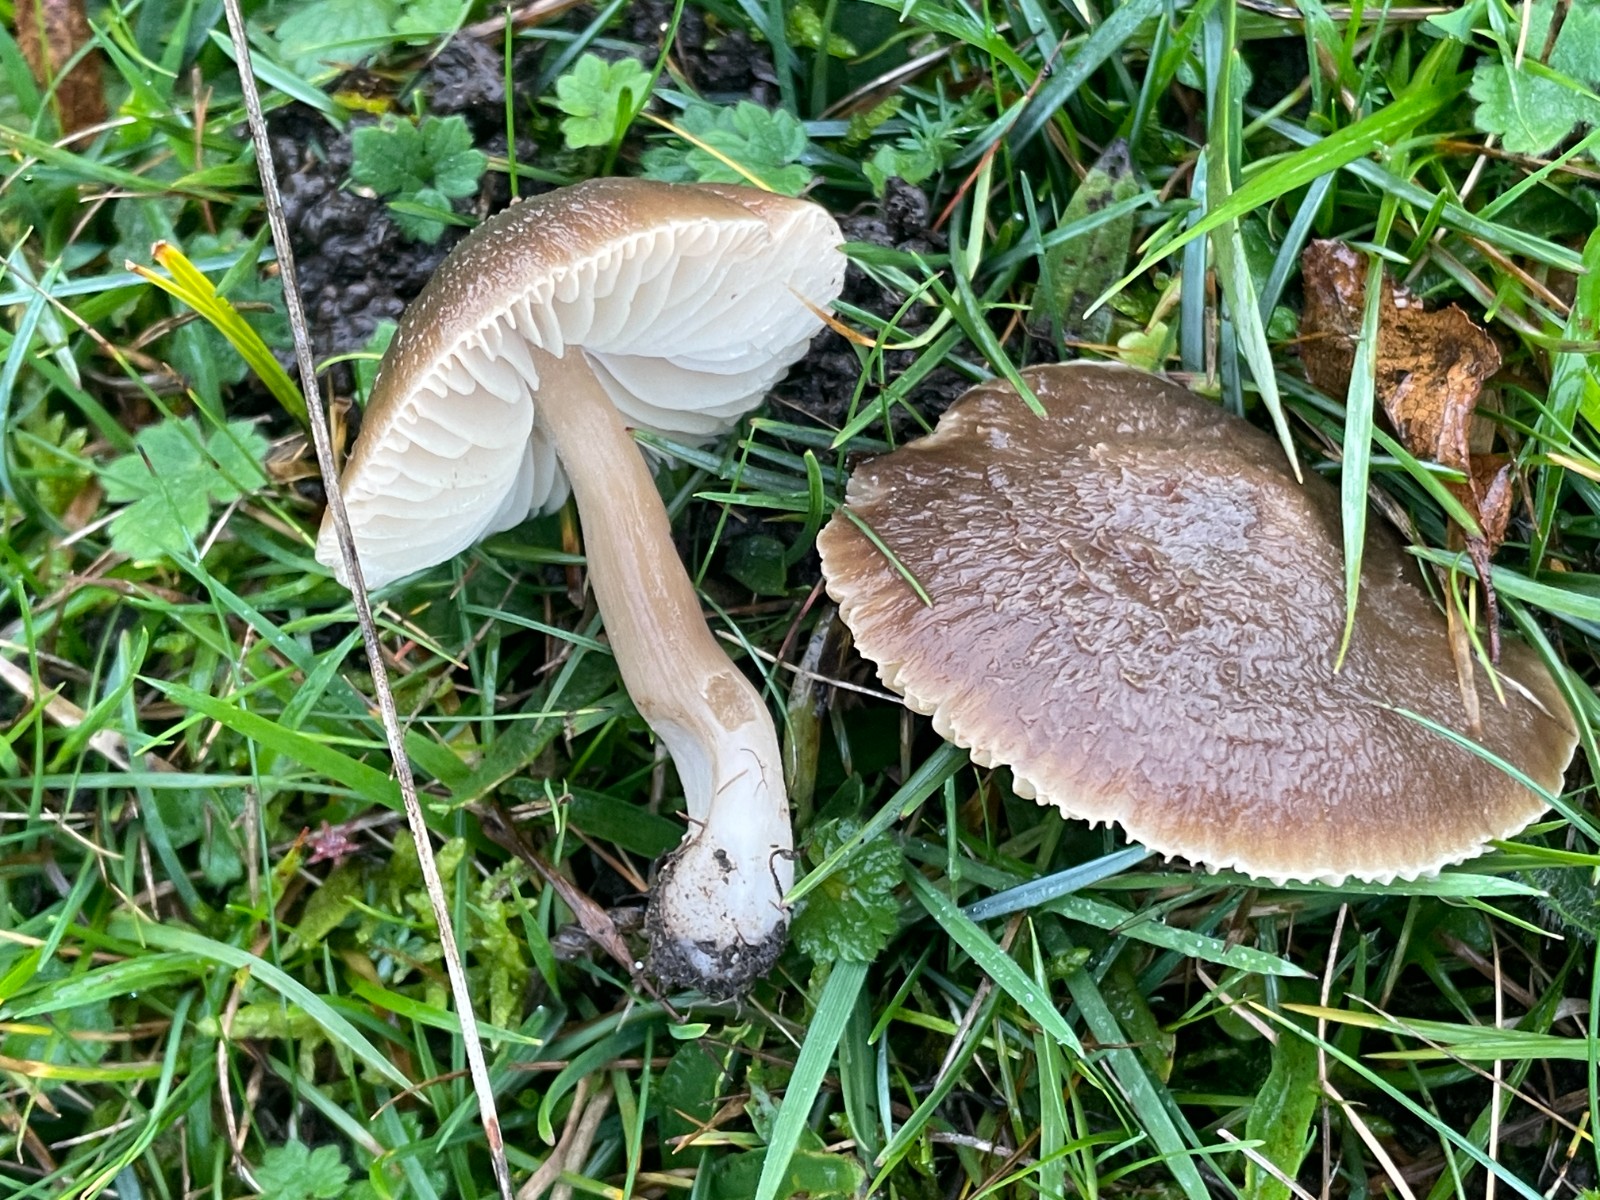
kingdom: Fungi
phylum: Basidiomycota
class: Agaricomycetes
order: Agaricales
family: Hygrophoraceae
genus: Neohygrocybe
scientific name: Neohygrocybe nitrata
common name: stinkende vokshat
